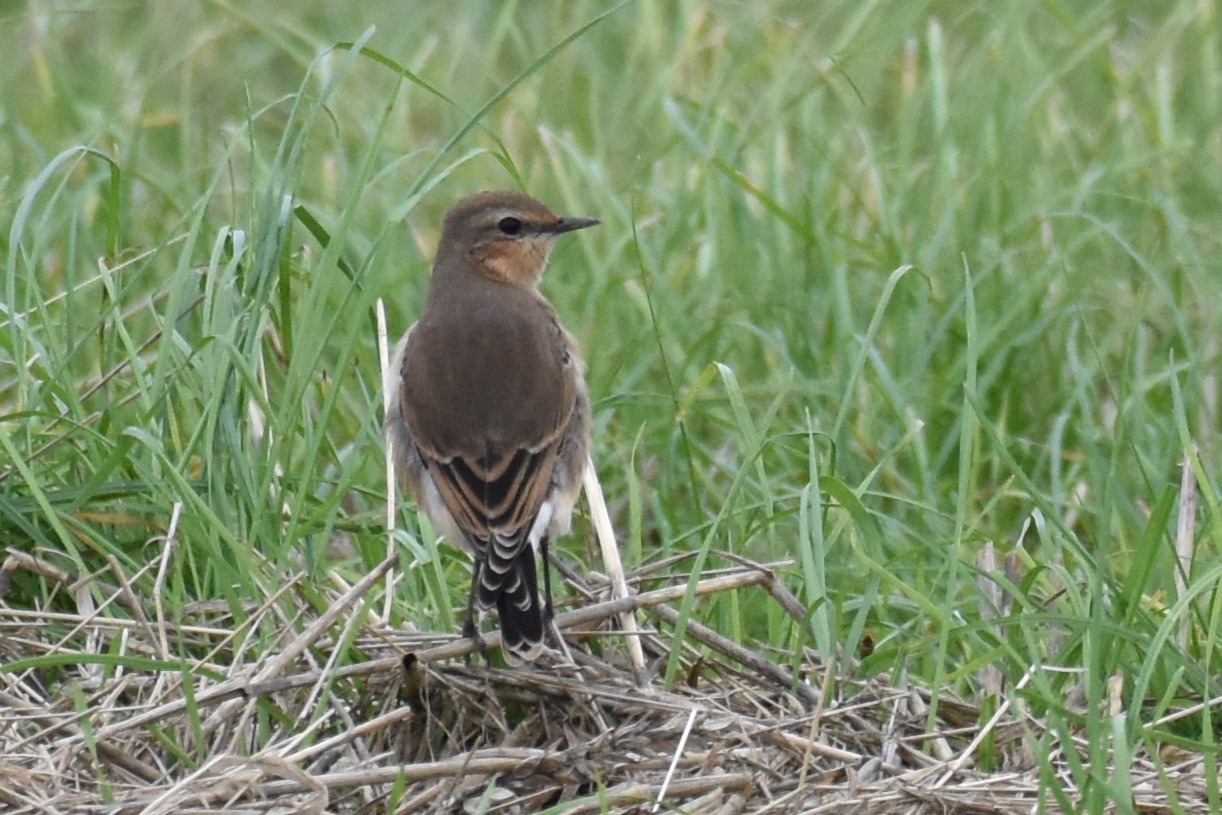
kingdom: Animalia
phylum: Chordata
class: Aves
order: Passeriformes
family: Muscicapidae
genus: Oenanthe
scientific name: Oenanthe oenanthe
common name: Stenpikker
